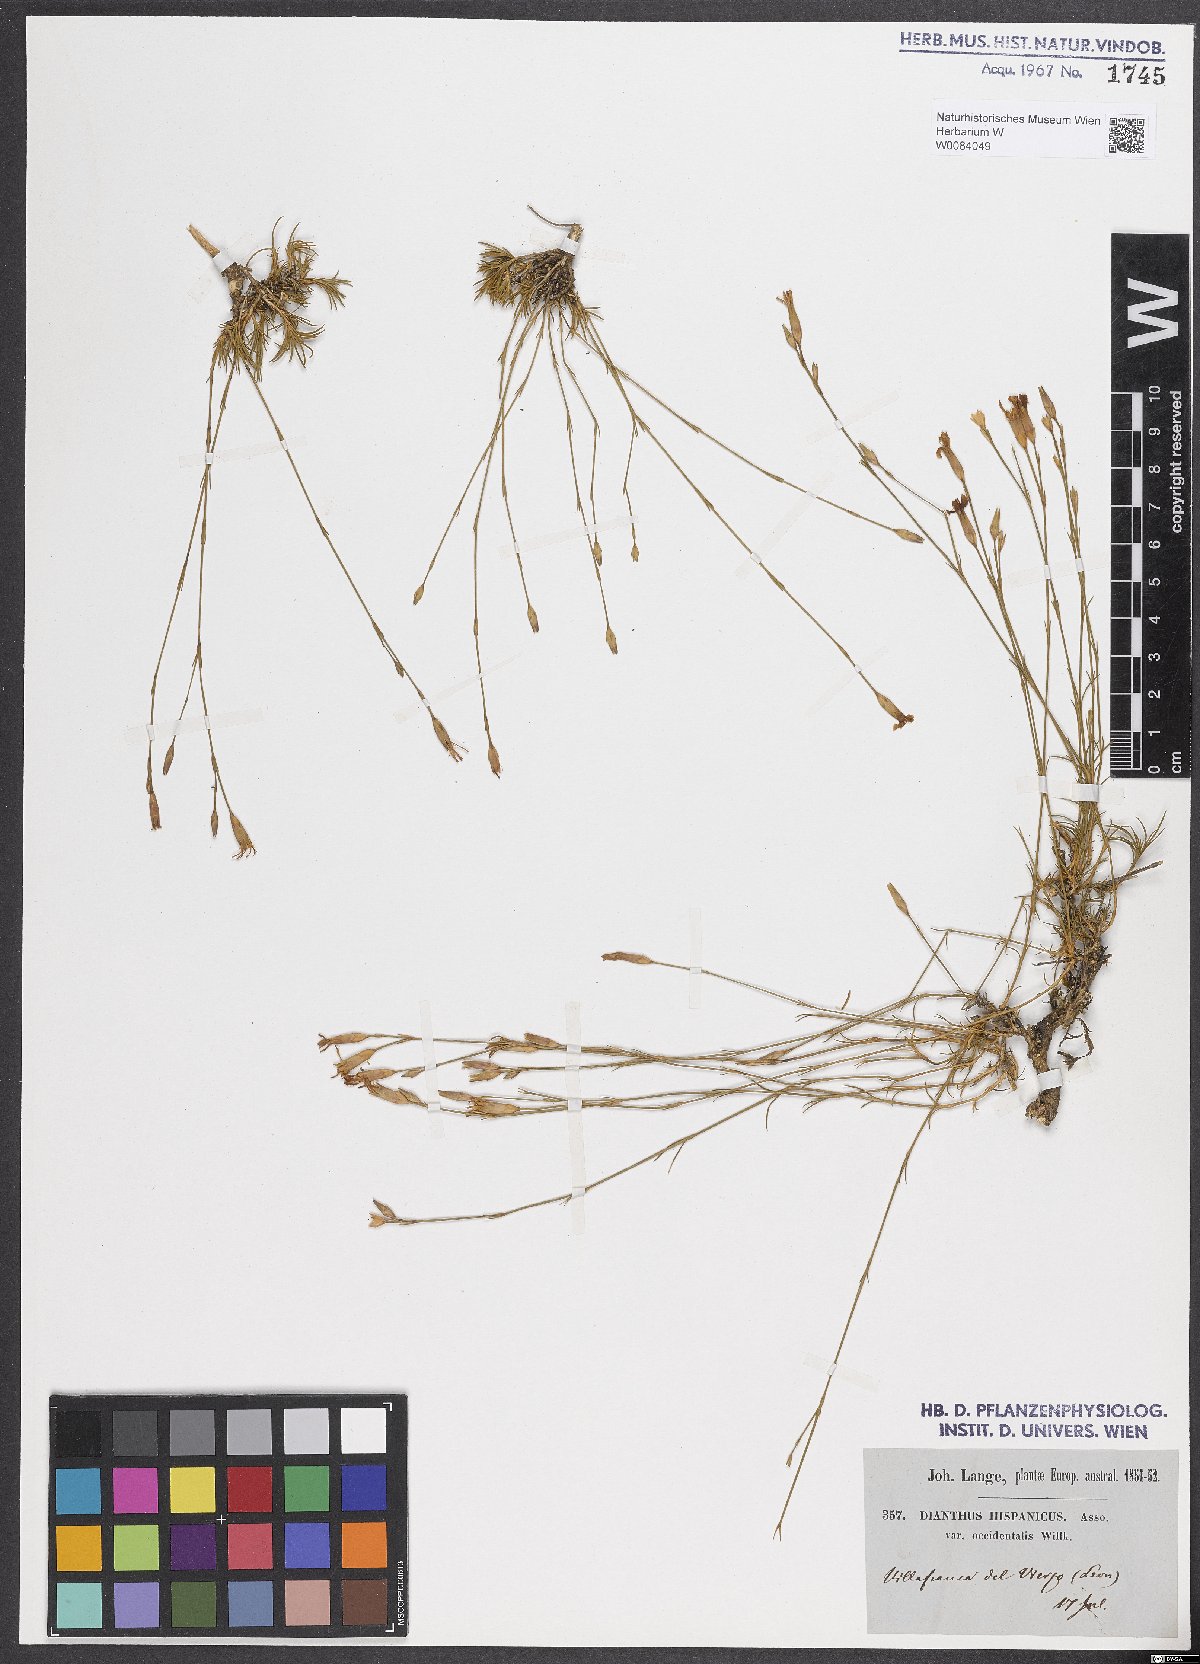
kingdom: Plantae
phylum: Tracheophyta
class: Magnoliopsida
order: Caryophyllales
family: Caryophyllaceae
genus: Dianthus
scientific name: Dianthus pungens
